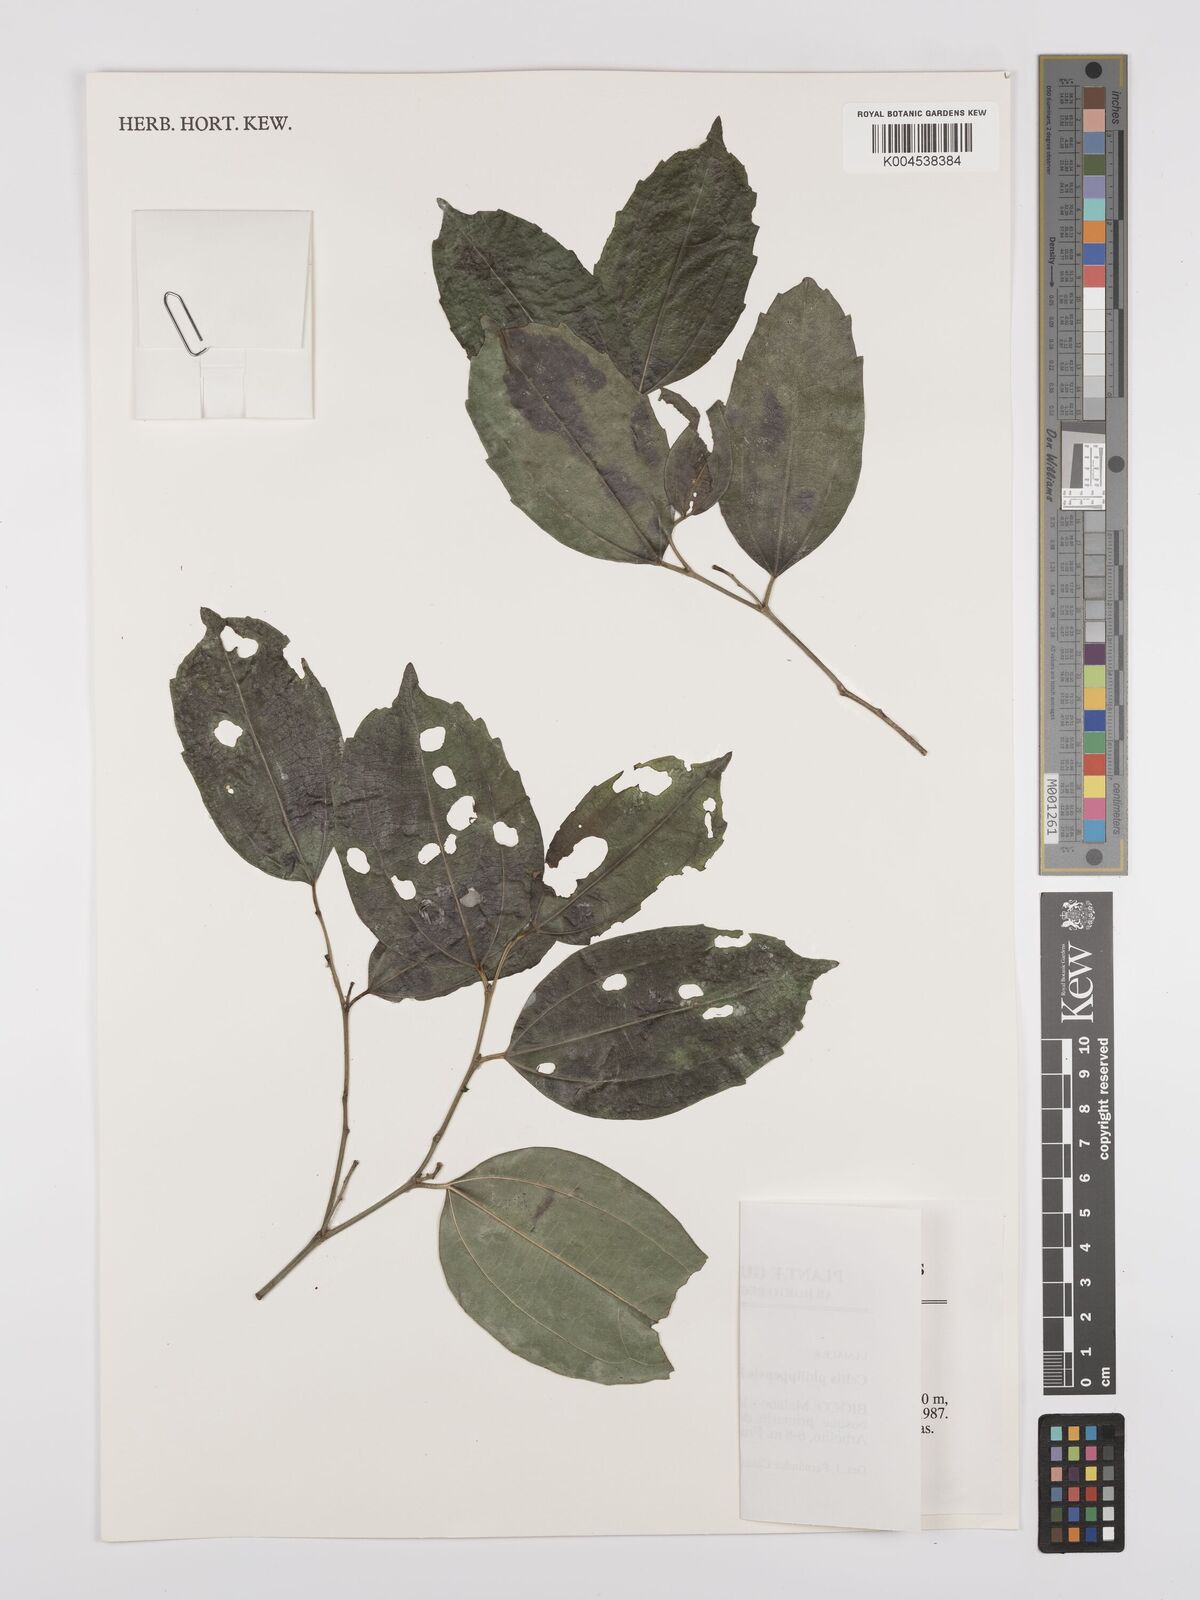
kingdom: Plantae
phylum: Tracheophyta
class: Magnoliopsida
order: Rosales
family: Cannabaceae
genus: Celtis
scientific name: Celtis philippensis
